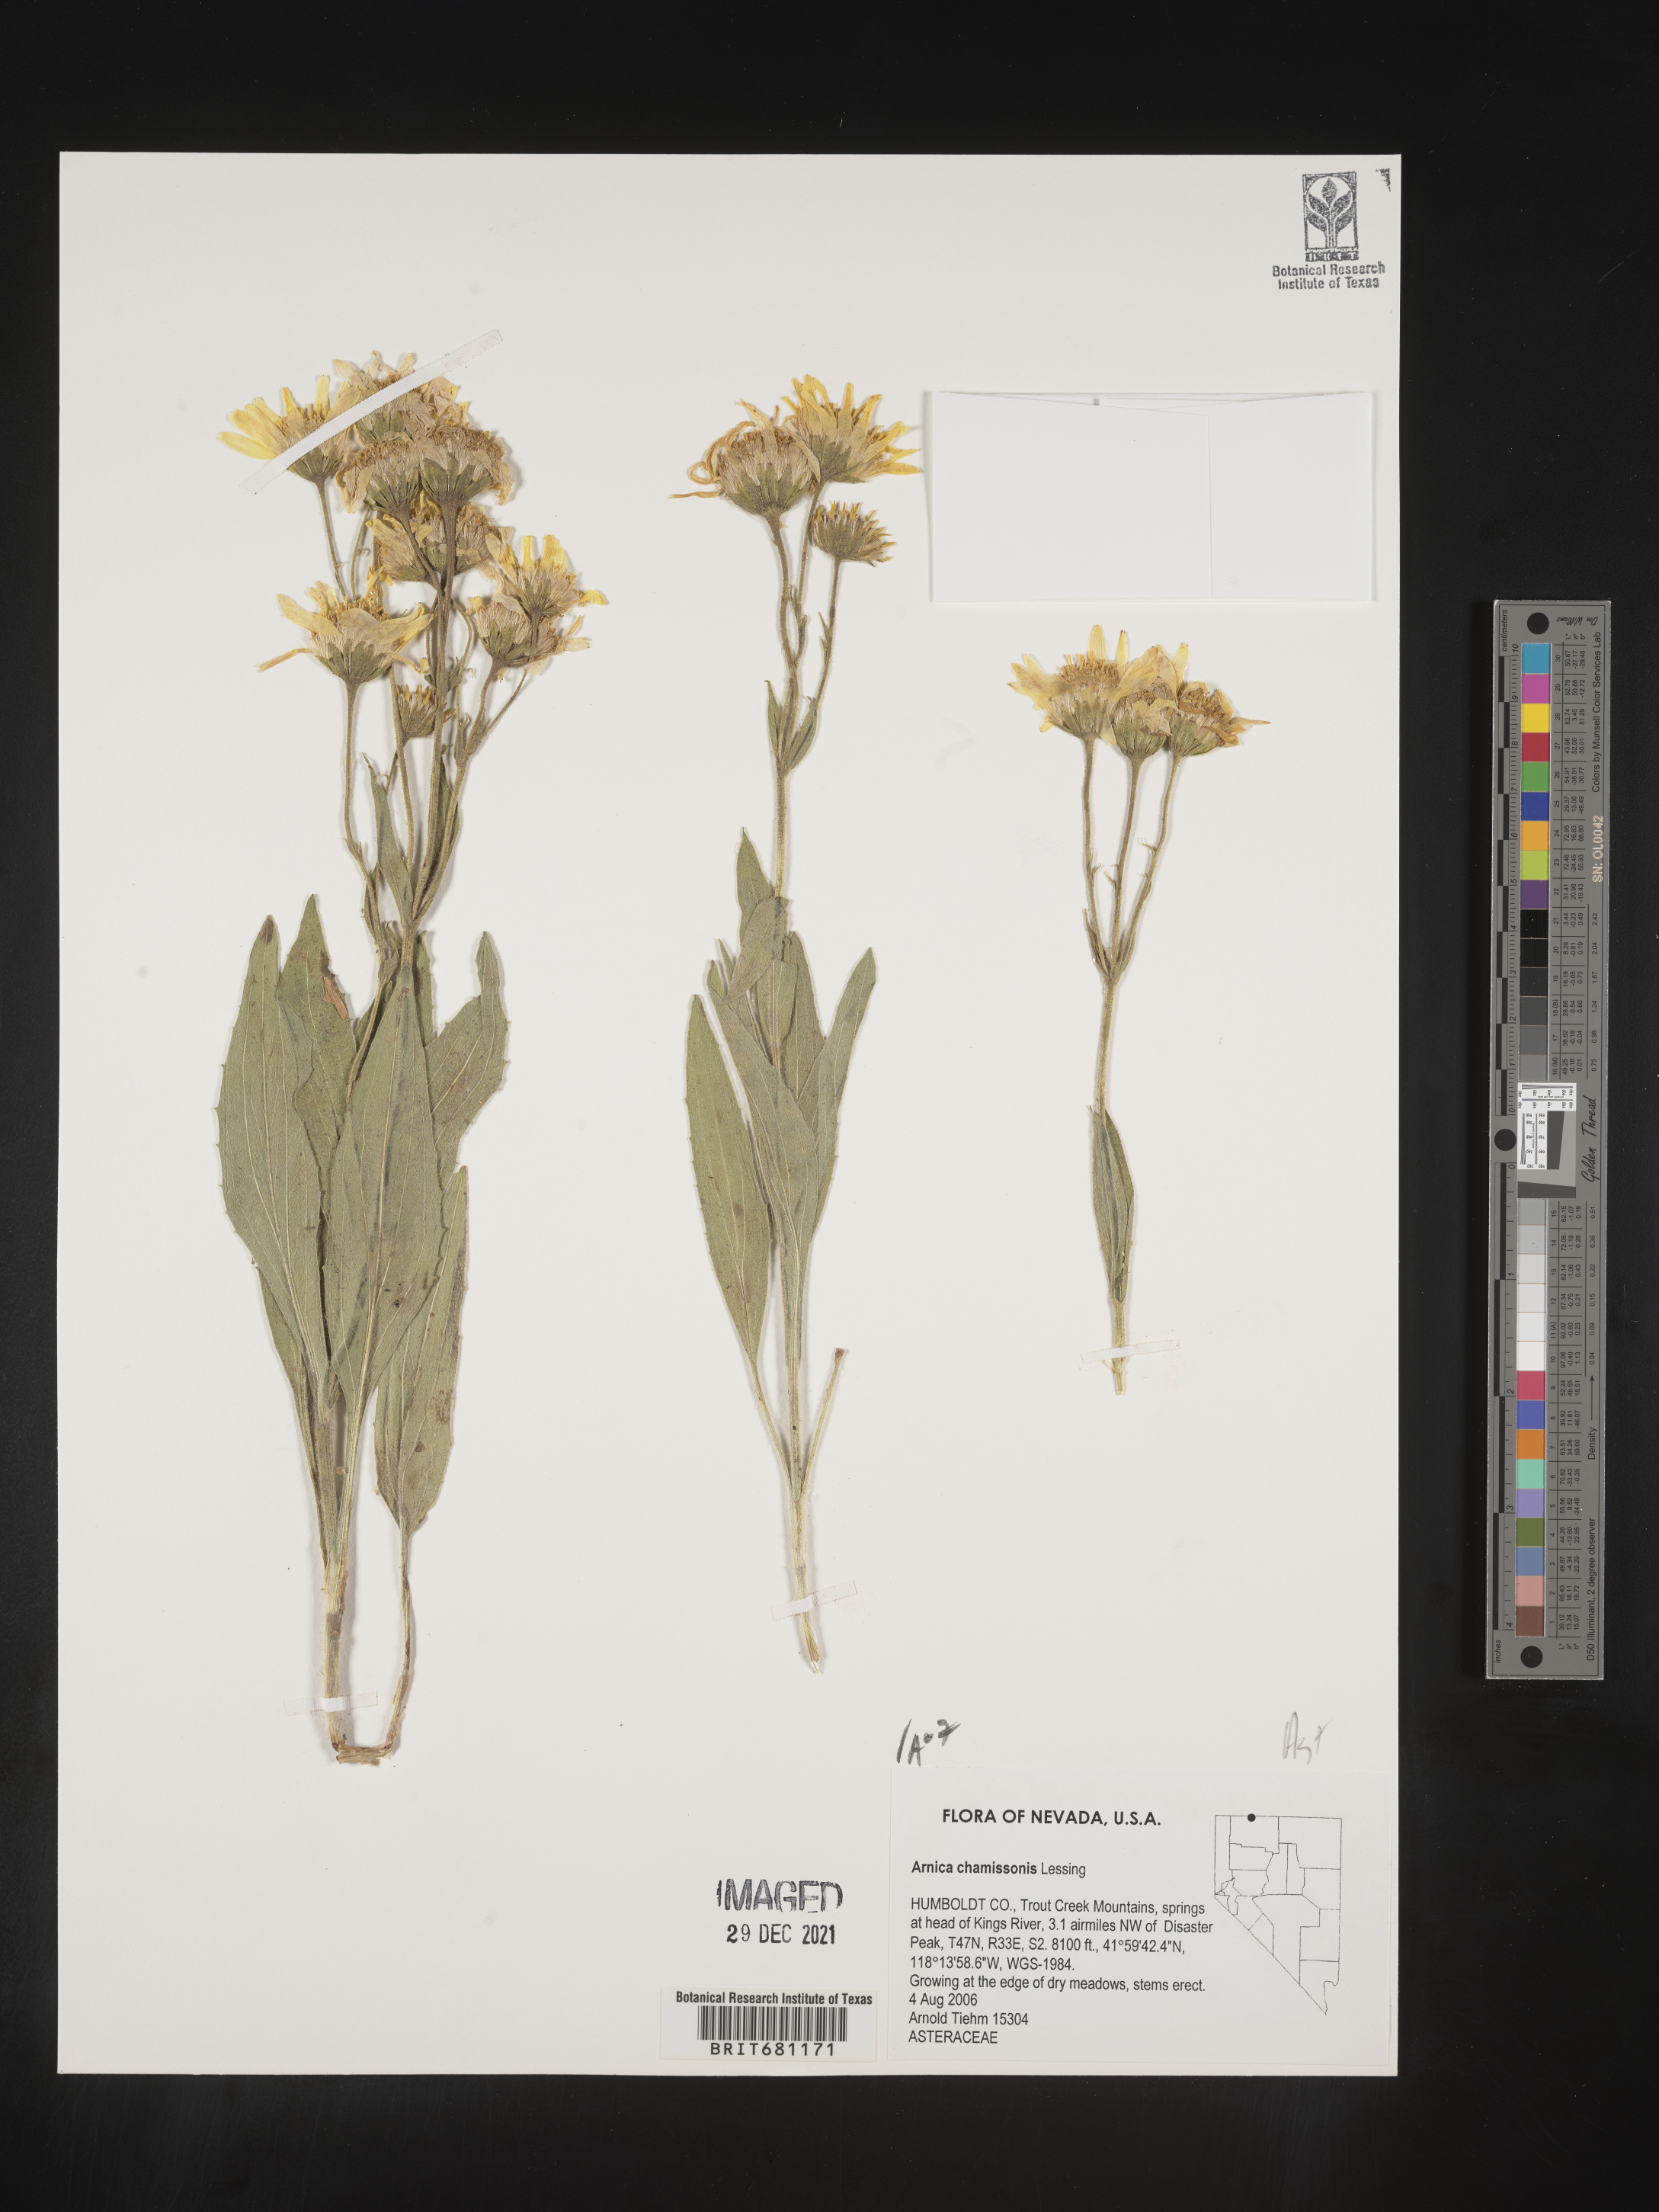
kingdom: Plantae
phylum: Tracheophyta
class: Magnoliopsida
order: Asterales
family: Asteraceae
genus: Arnica
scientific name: Arnica chamissonis
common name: Leafy arnica
